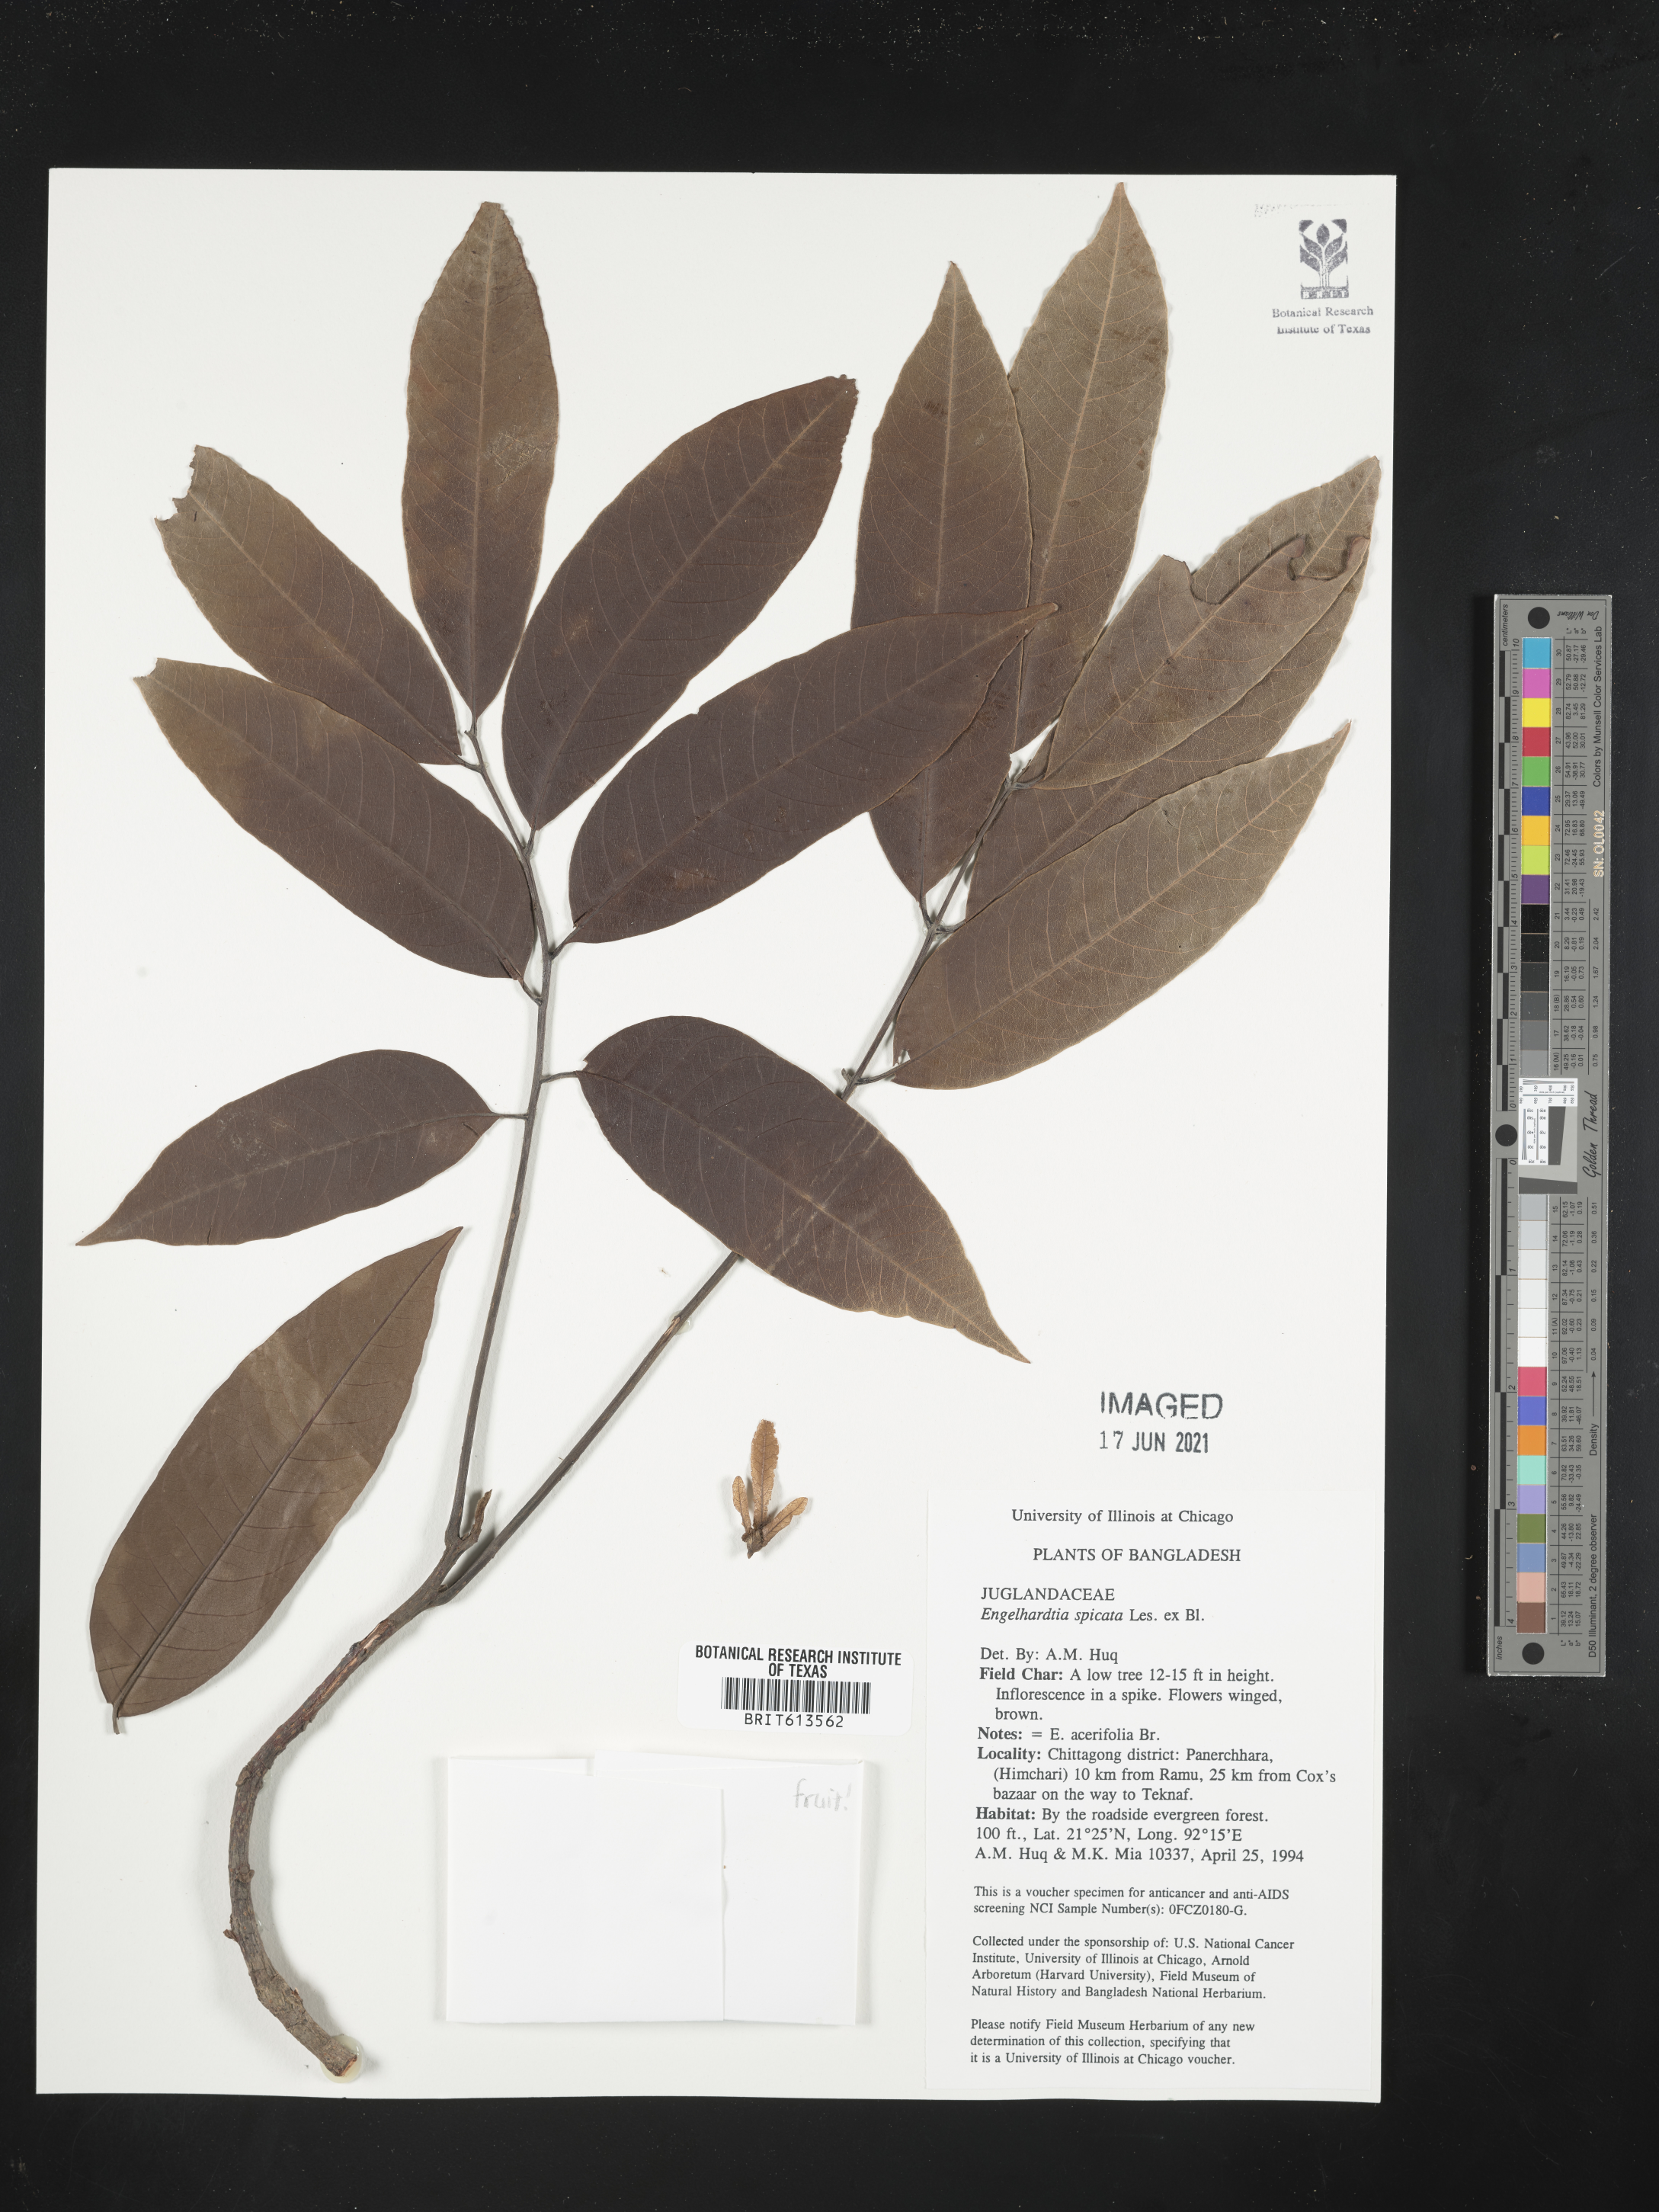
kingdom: Plantae
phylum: Tracheophyta
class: Magnoliopsida
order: Fagales
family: Juglandaceae
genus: Engelhardtia
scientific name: Engelhardtia spicata
